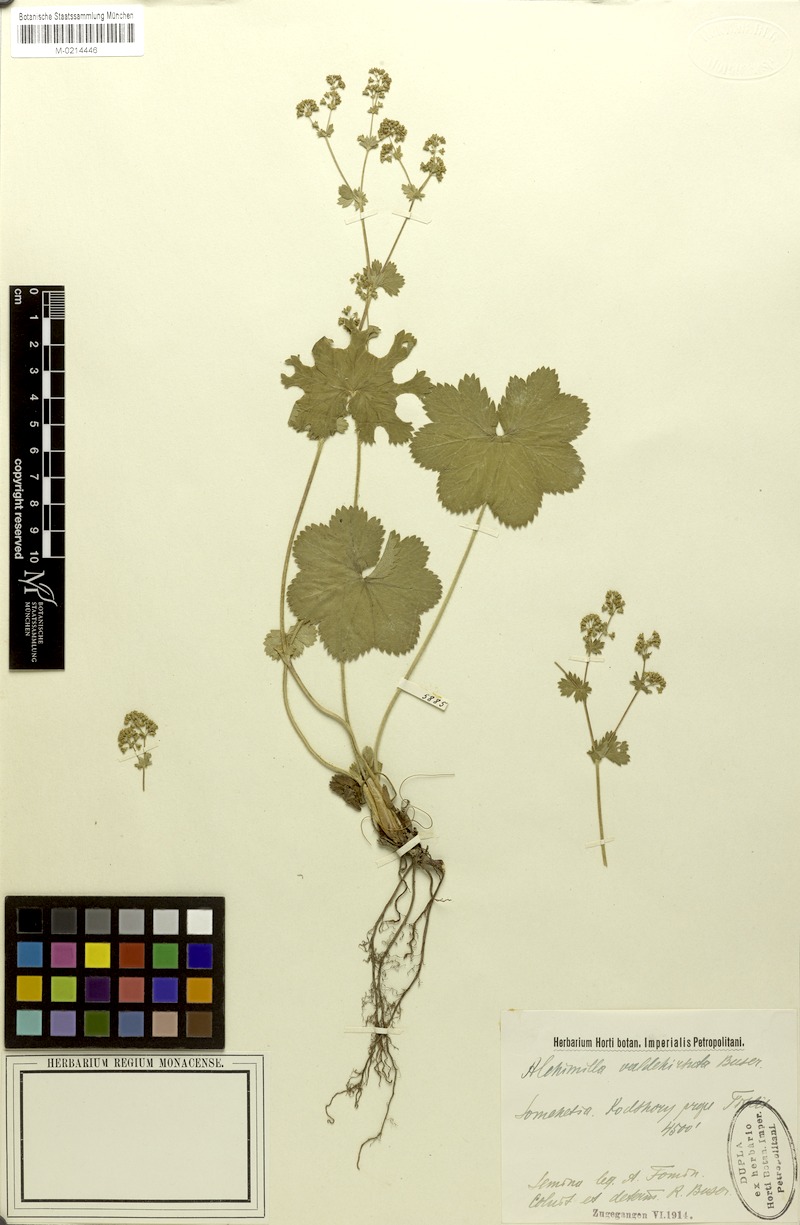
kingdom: Plantae
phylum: Tracheophyta
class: Magnoliopsida
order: Rosales
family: Rosaceae
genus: Alchemilla
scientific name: Alchemilla valdehirsuta
